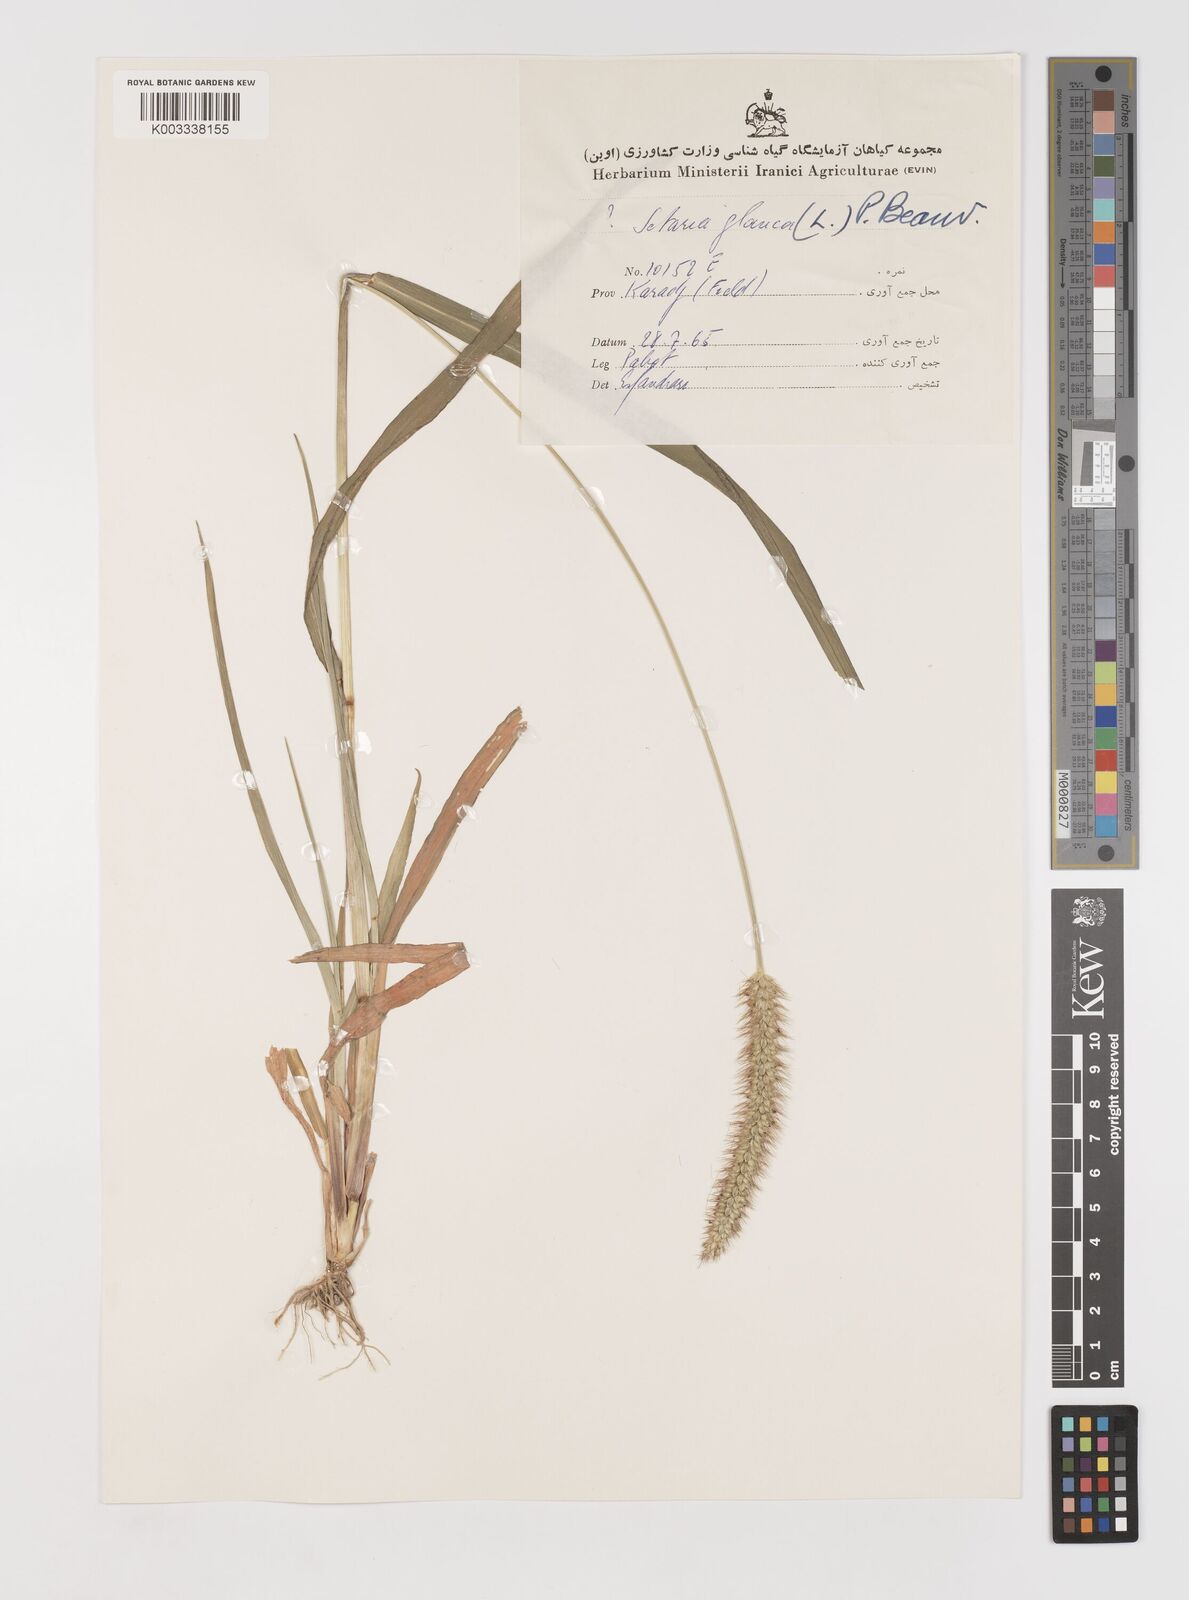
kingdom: Plantae
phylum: Tracheophyta
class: Liliopsida
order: Poales
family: Poaceae
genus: Setaria
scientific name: Setaria pumila
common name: Yellow bristle-grass
